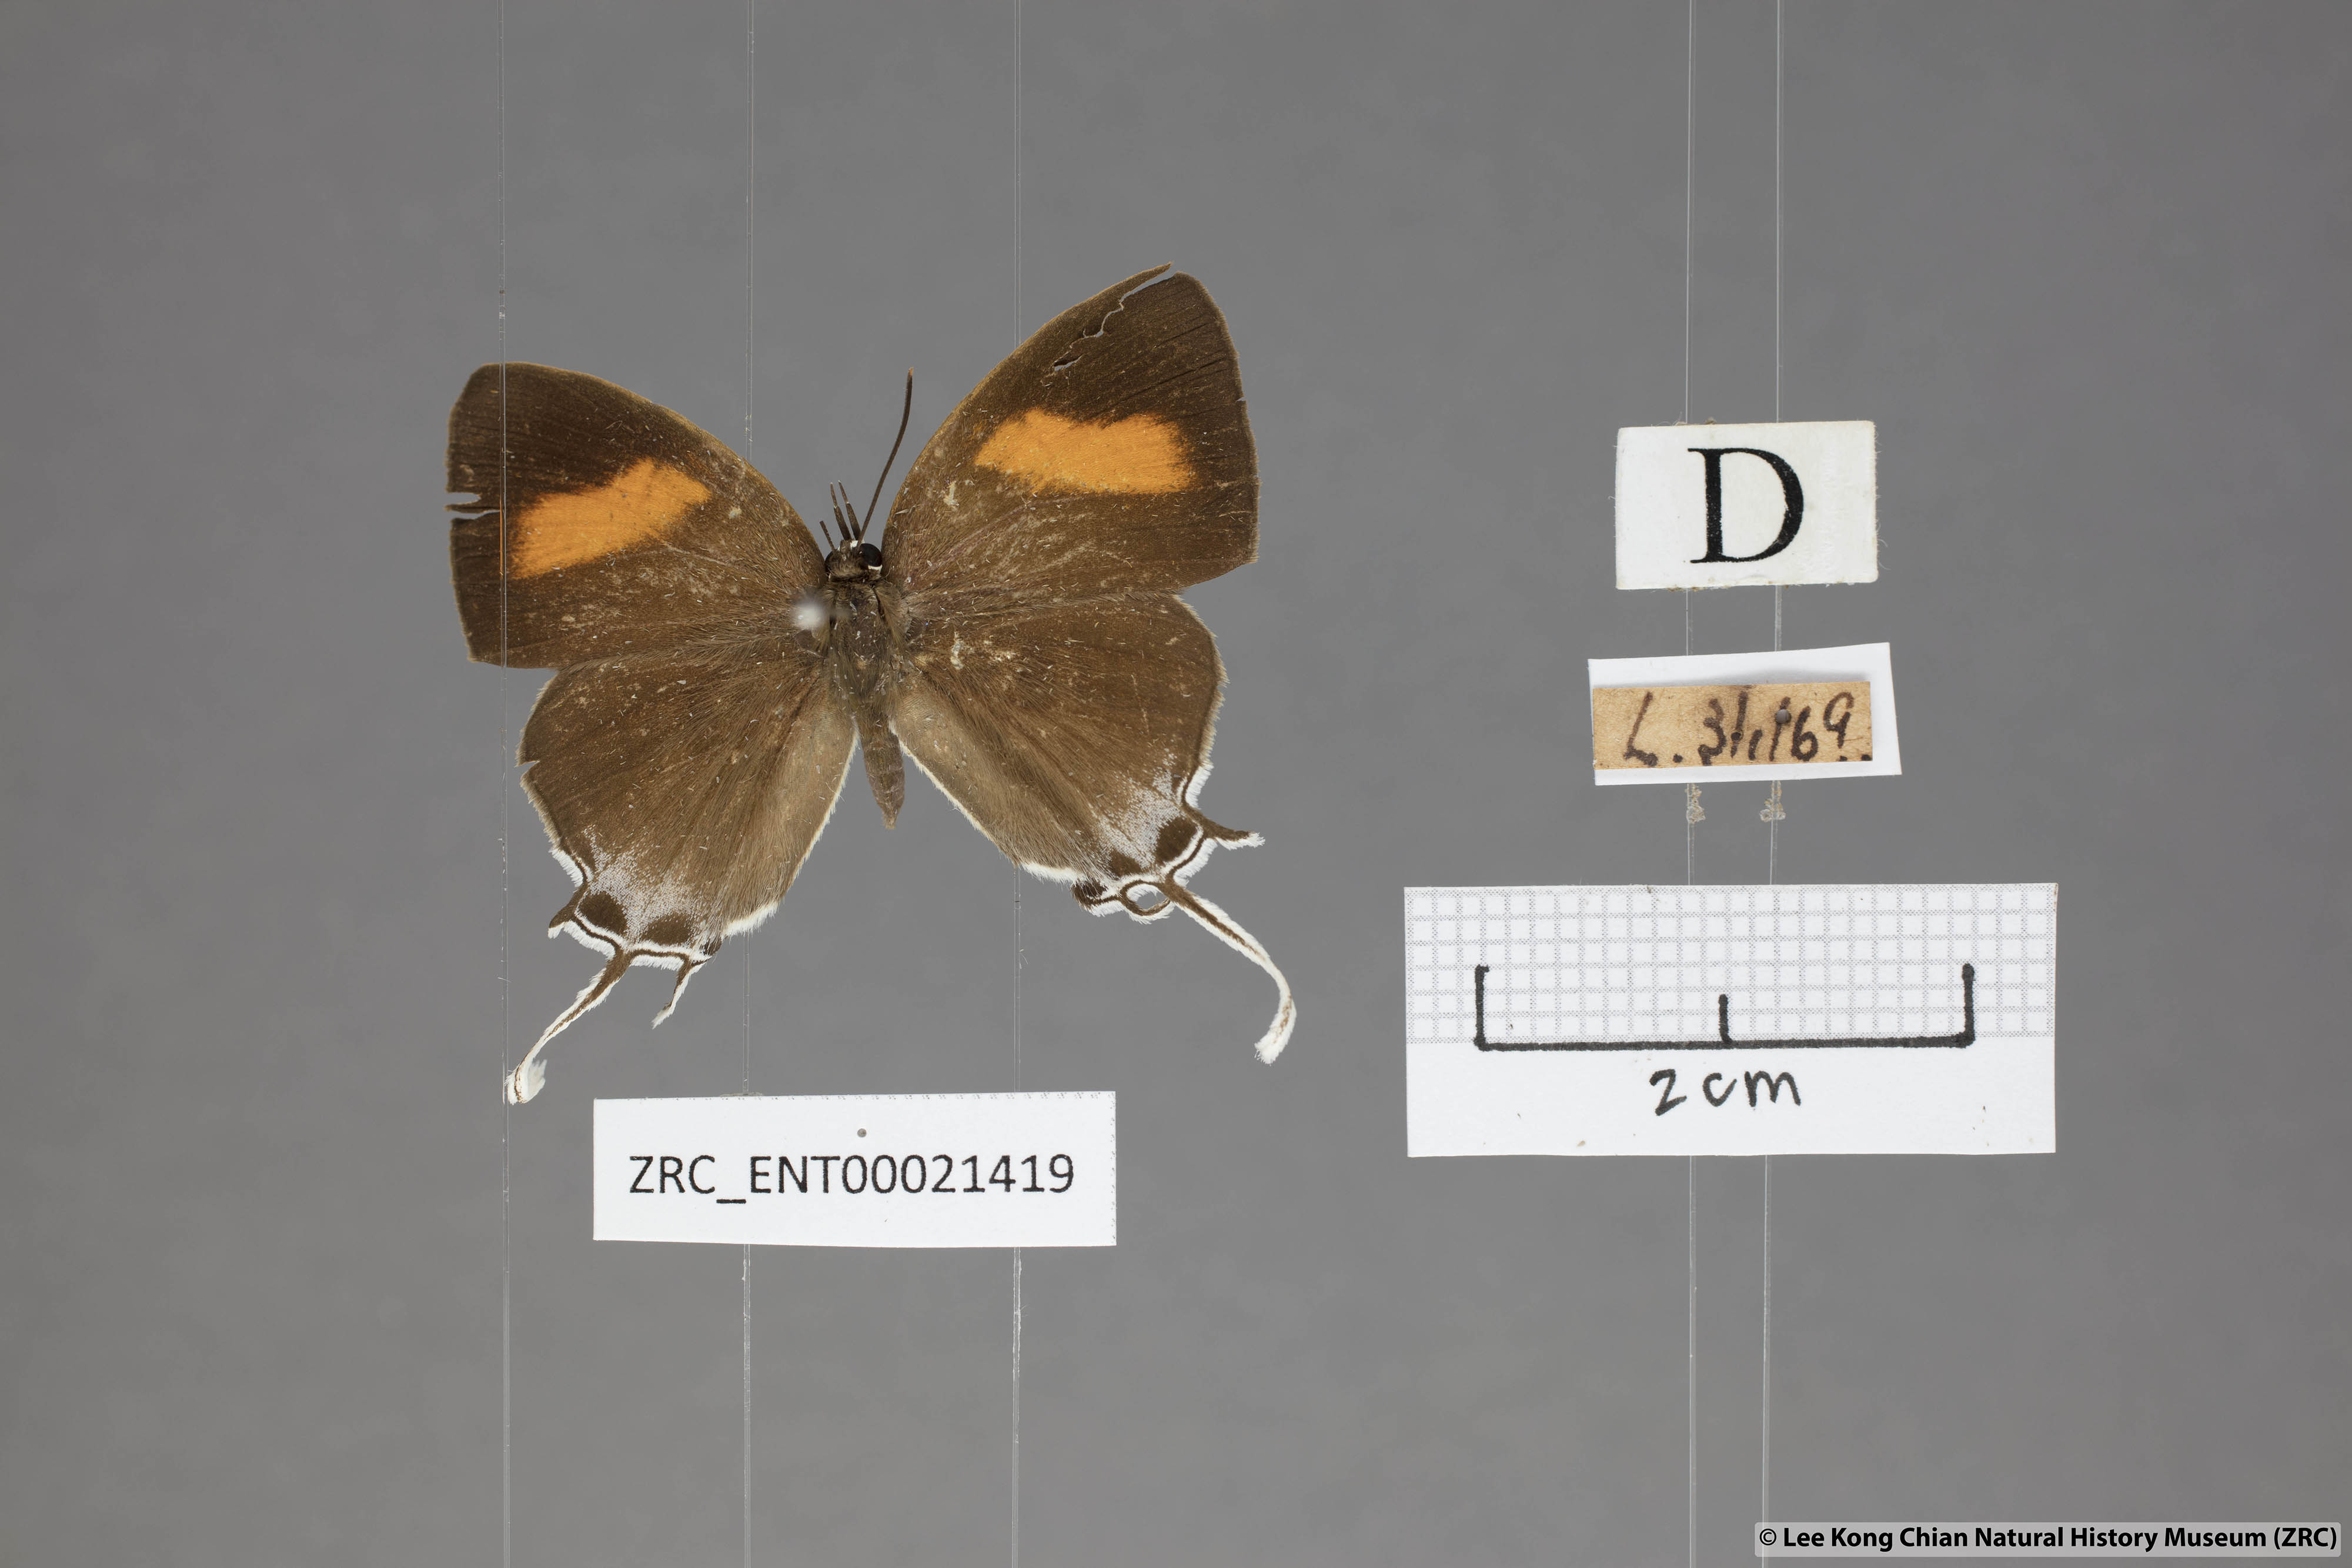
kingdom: Animalia
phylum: Arthropoda
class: Insecta
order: Lepidoptera
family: Lycaenidae
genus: Drupadia
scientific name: Drupadia theda
